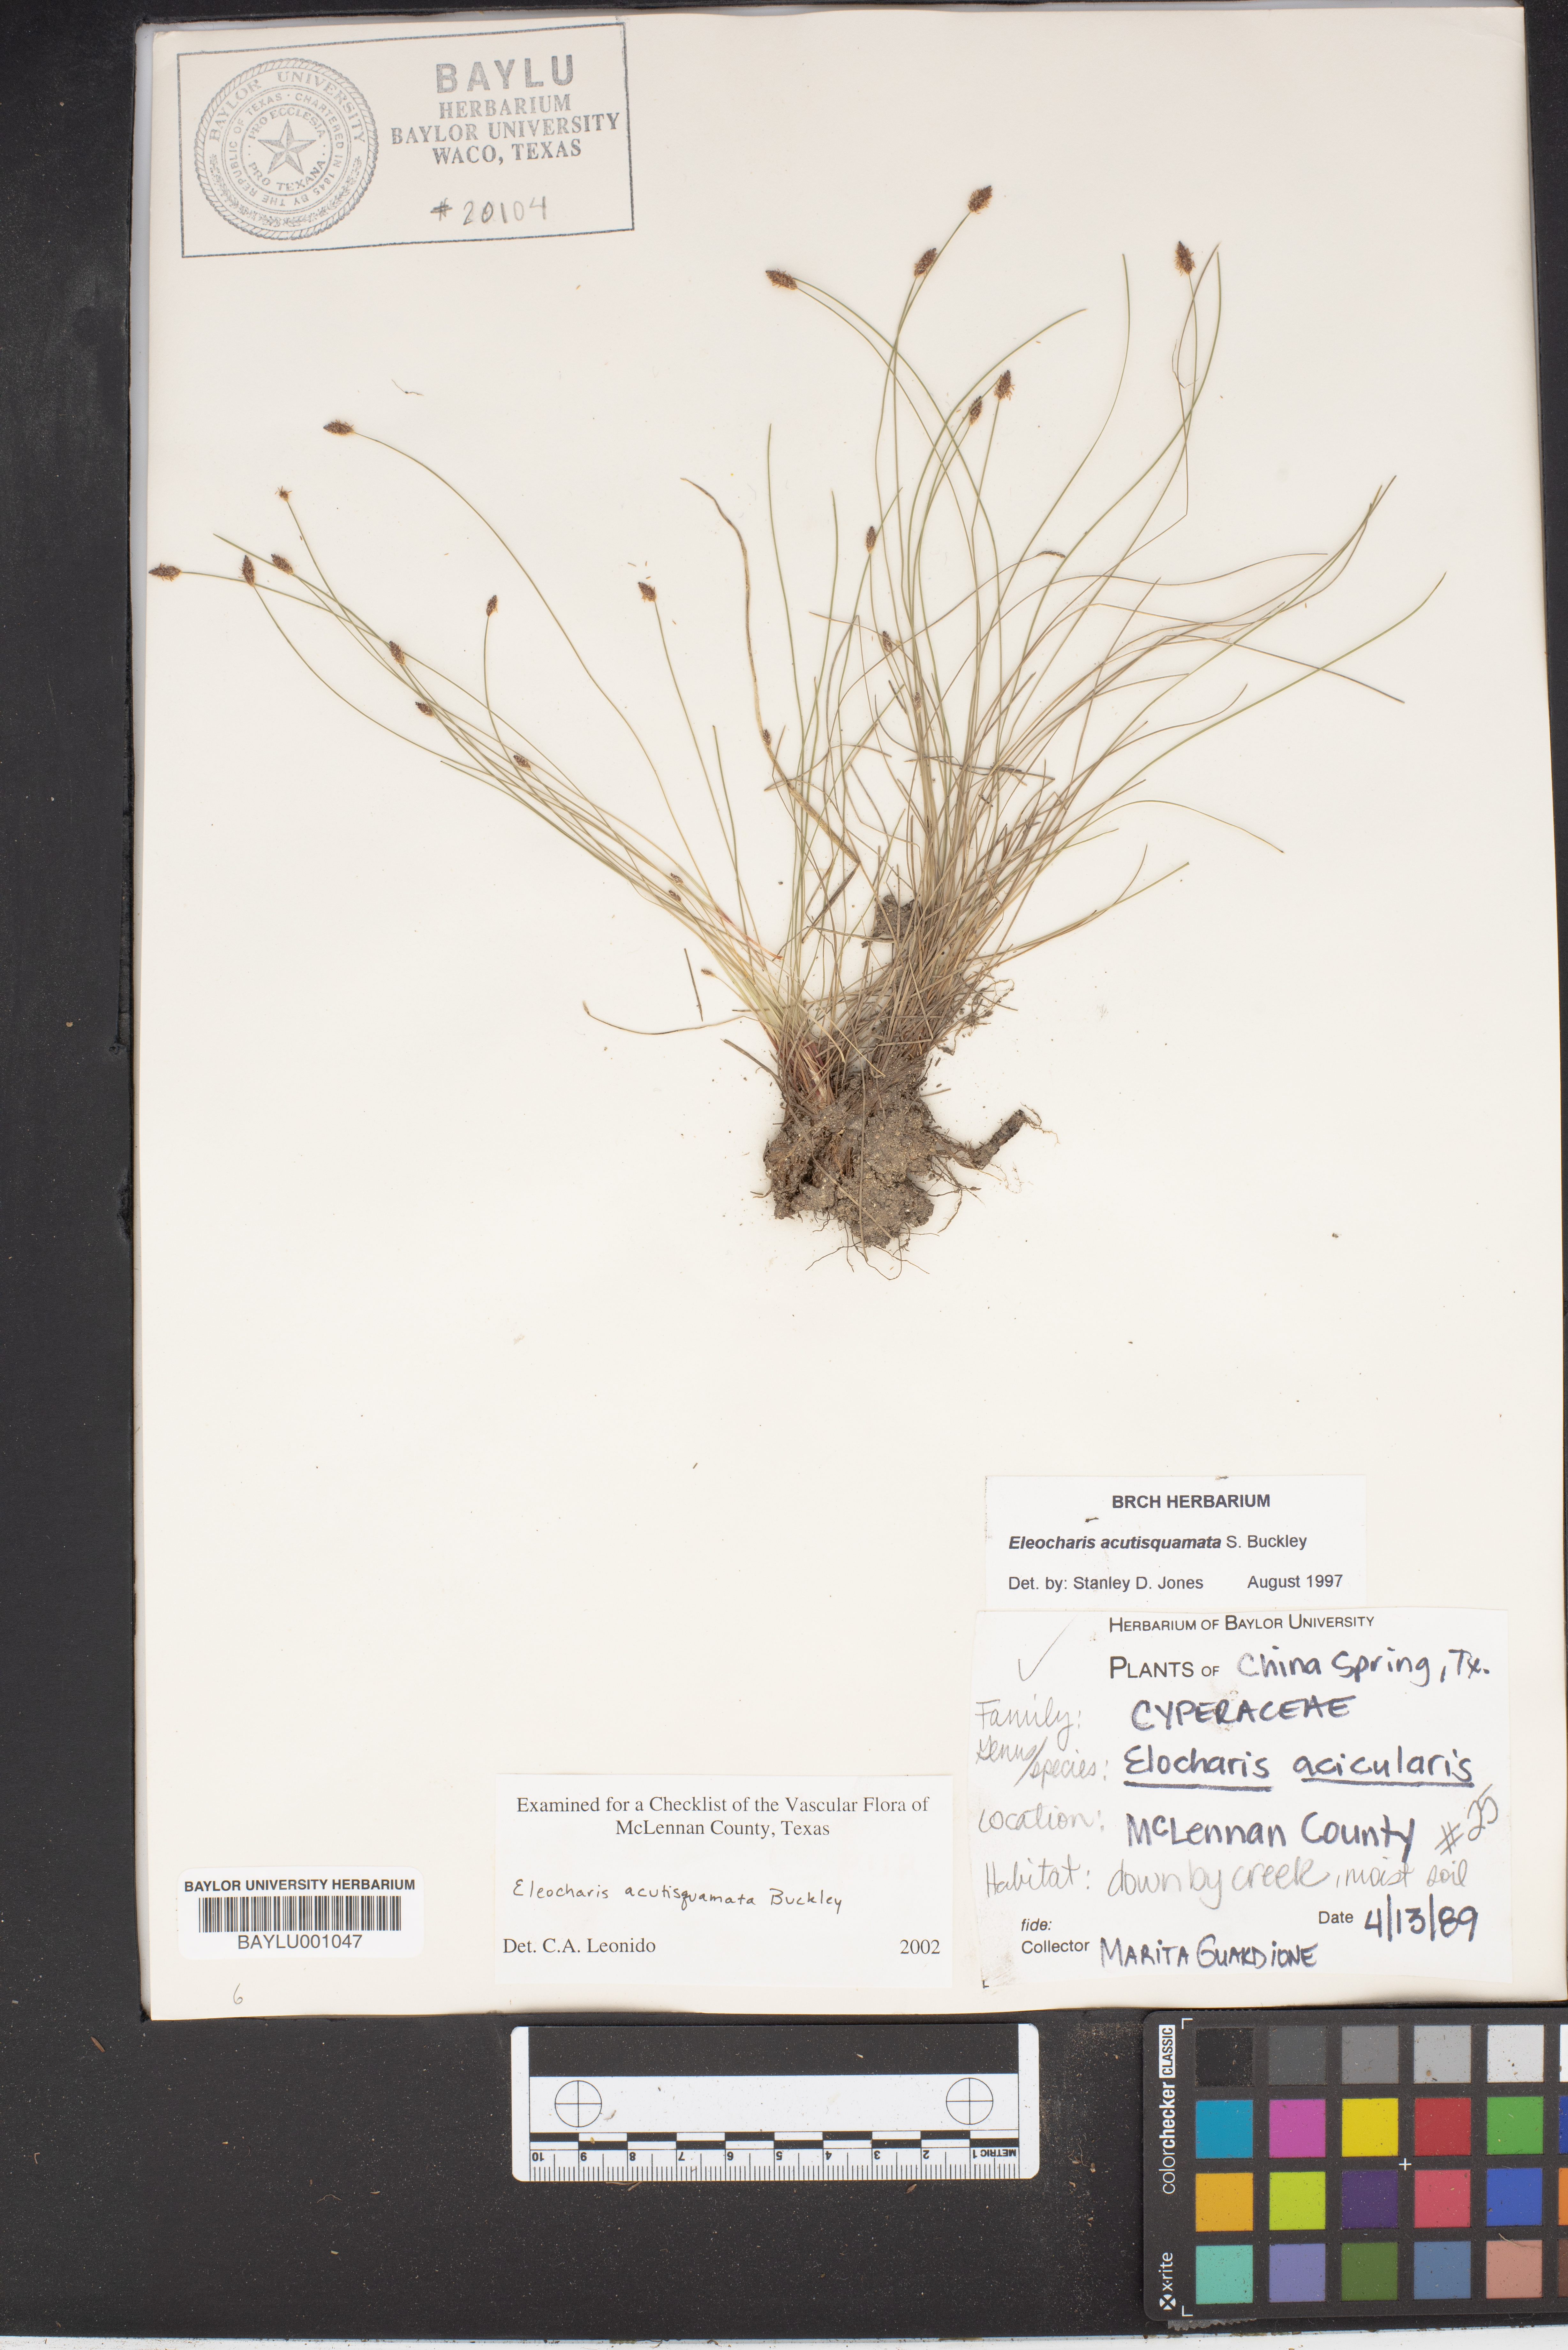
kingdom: Plantae
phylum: Tracheophyta
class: Liliopsida
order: Poales
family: Cyperaceae
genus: Eleocharis
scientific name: Eleocharis compressa
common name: Flat-stem spike-rush
